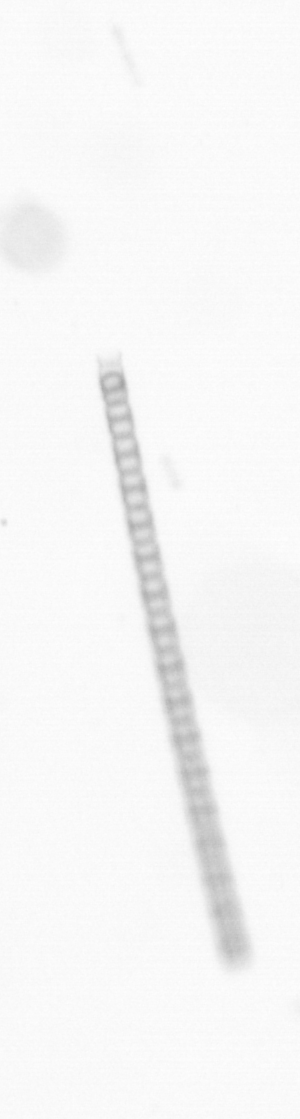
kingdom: Chromista
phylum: Ochrophyta
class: Bacillariophyceae
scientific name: Bacillariophyceae
